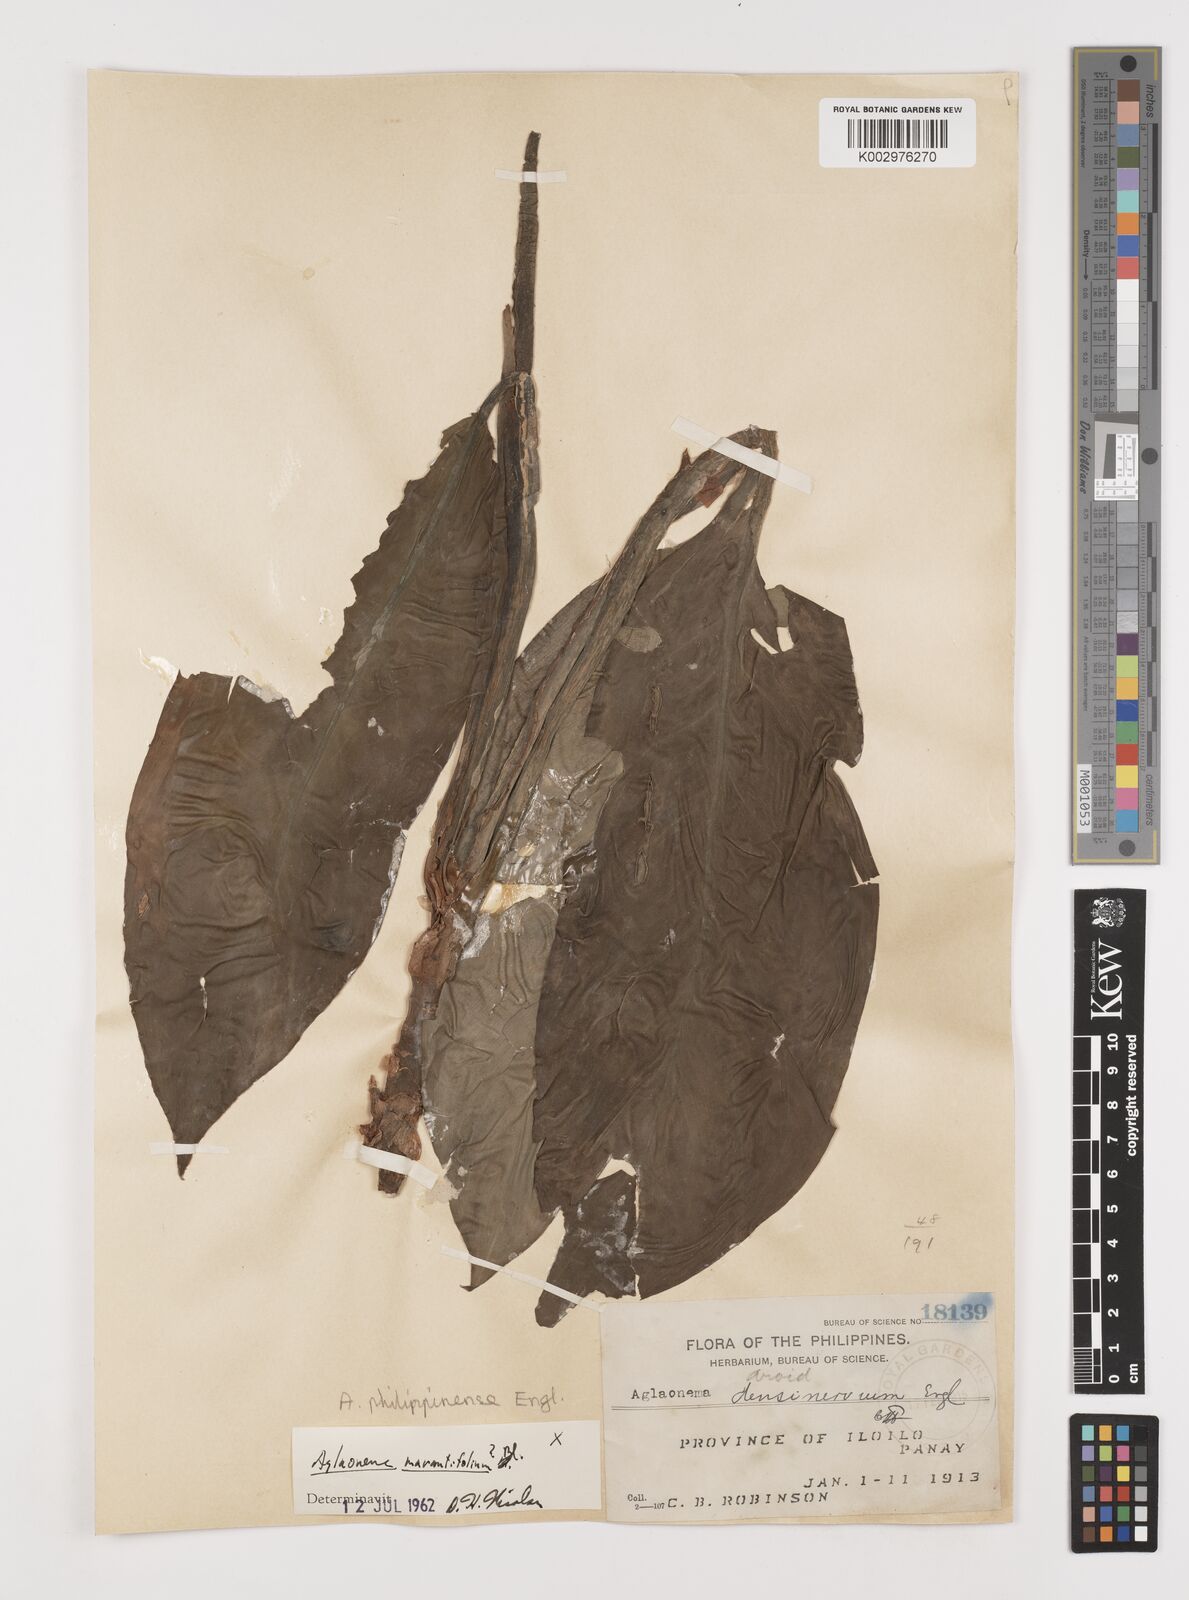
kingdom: Plantae
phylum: Tracheophyta
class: Liliopsida
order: Alismatales
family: Araceae
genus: Aglaonema
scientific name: Aglaonema philippinense
